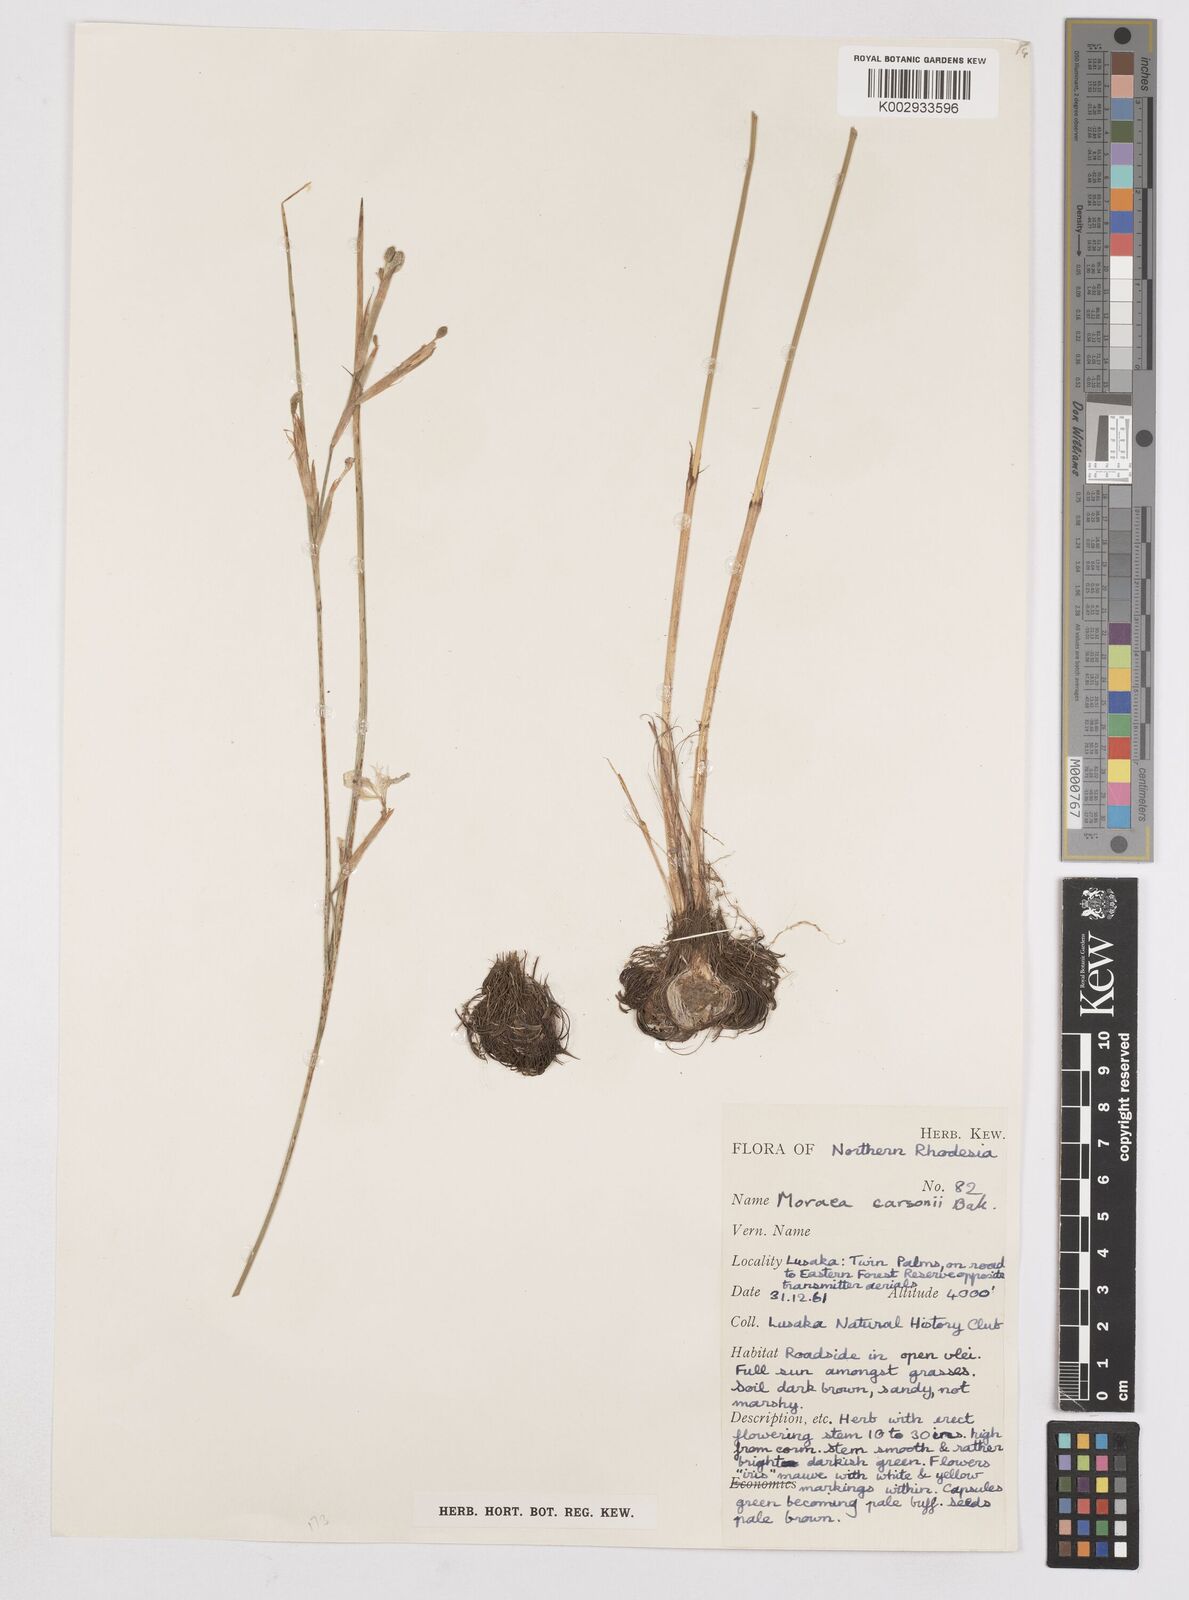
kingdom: Plantae
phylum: Tracheophyta
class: Liliopsida
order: Asparagales
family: Iridaceae
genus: Moraea
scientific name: Moraea carsonii
